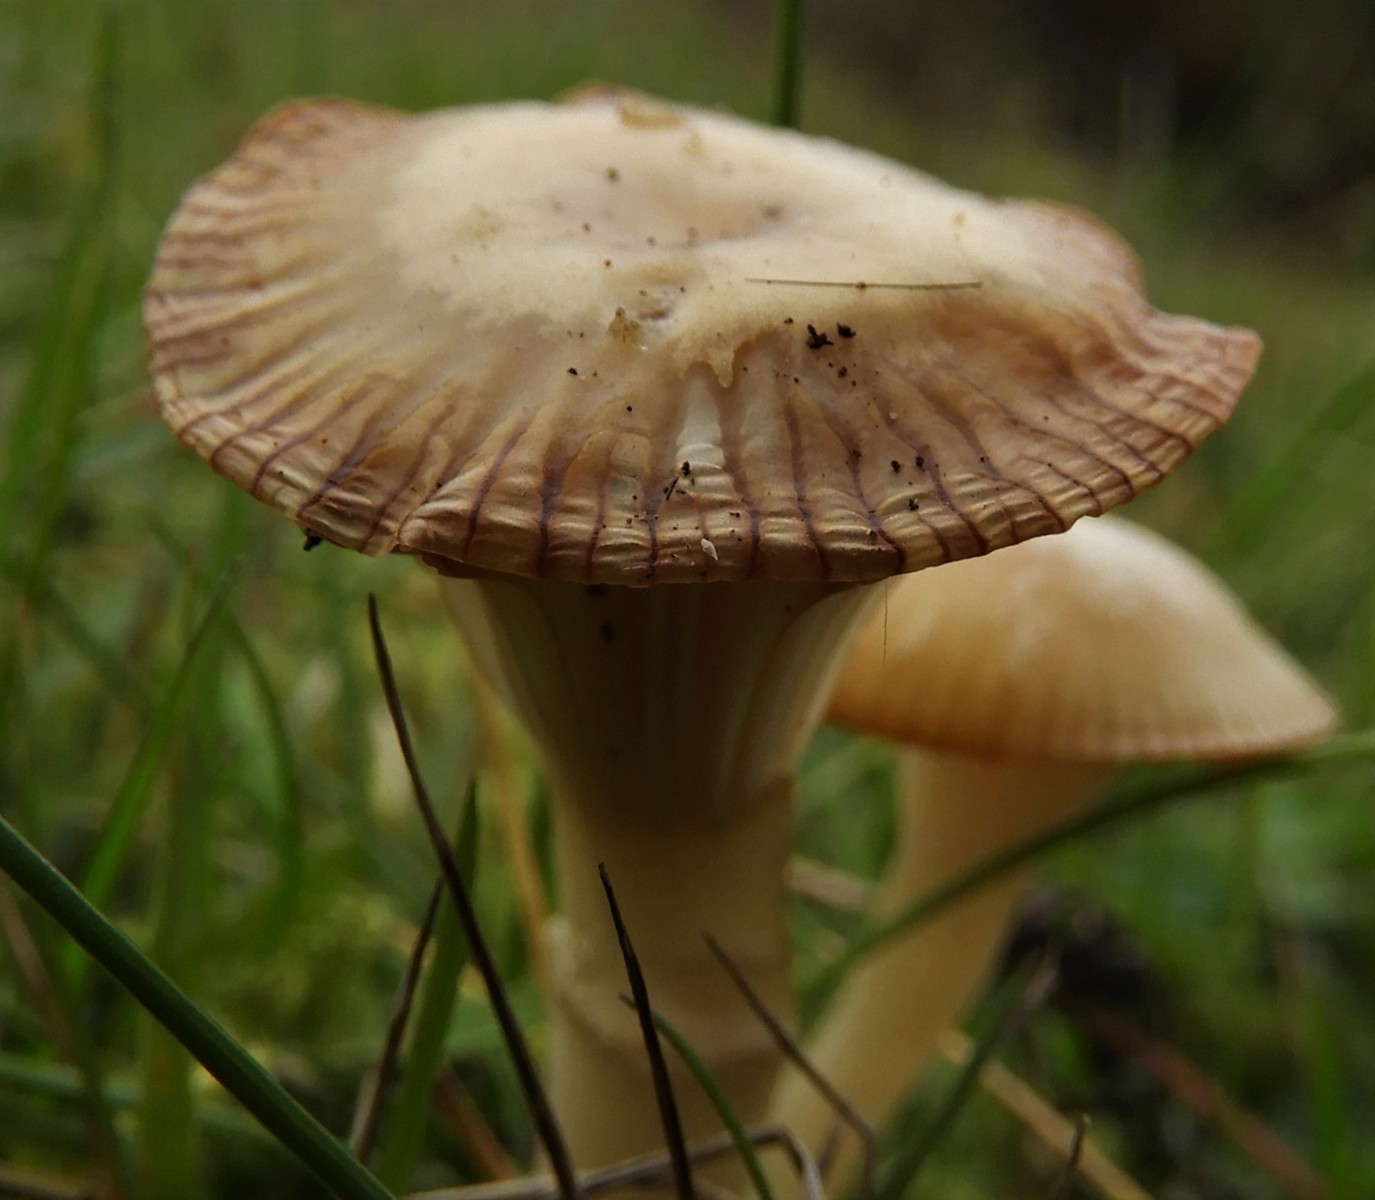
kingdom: Fungi
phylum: Basidiomycota
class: Agaricomycetes
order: Agaricales
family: Hygrophoraceae
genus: Cuphophyllus
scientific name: Cuphophyllus
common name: vokshat
